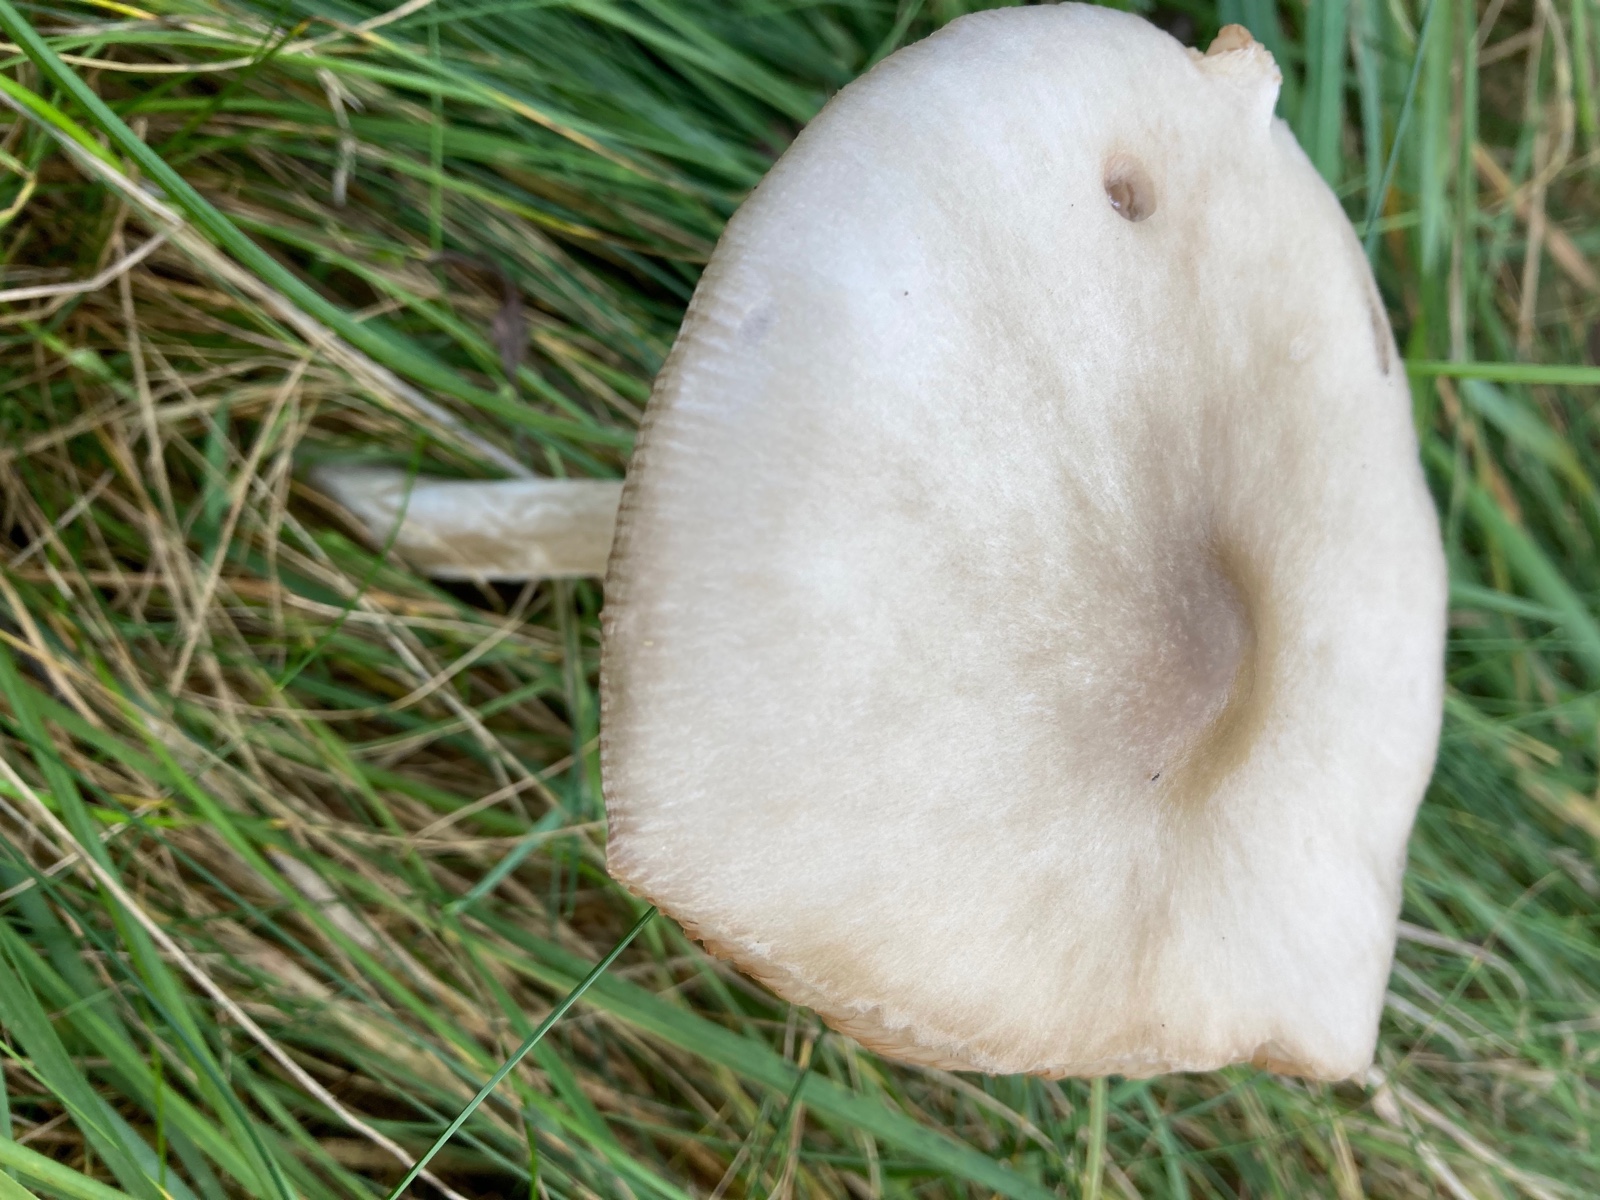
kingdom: Fungi
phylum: Basidiomycota
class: Agaricomycetes
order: Agaricales
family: Pluteaceae
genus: Volvopluteus
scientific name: Volvopluteus gloiocephalus
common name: høj posesvamp
